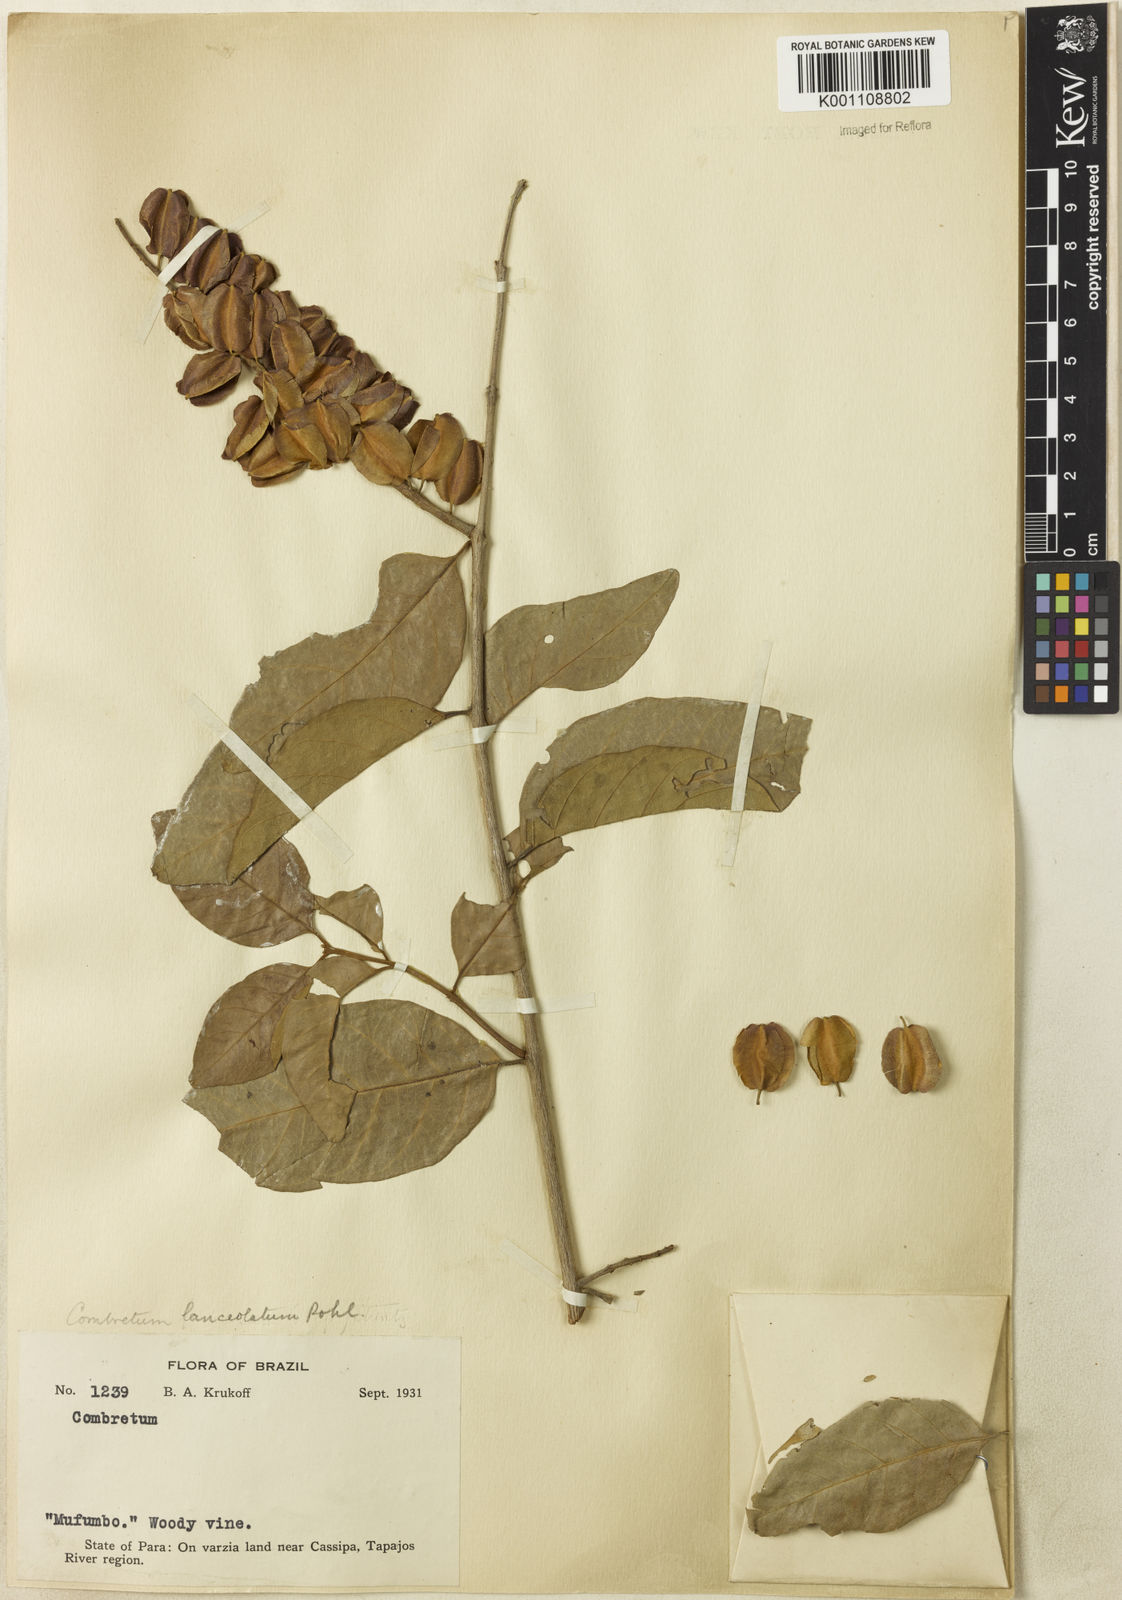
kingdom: Plantae
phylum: Tracheophyta
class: Magnoliopsida
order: Myrtales
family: Combretaceae
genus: Combretum
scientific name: Combretum lanceolatum
